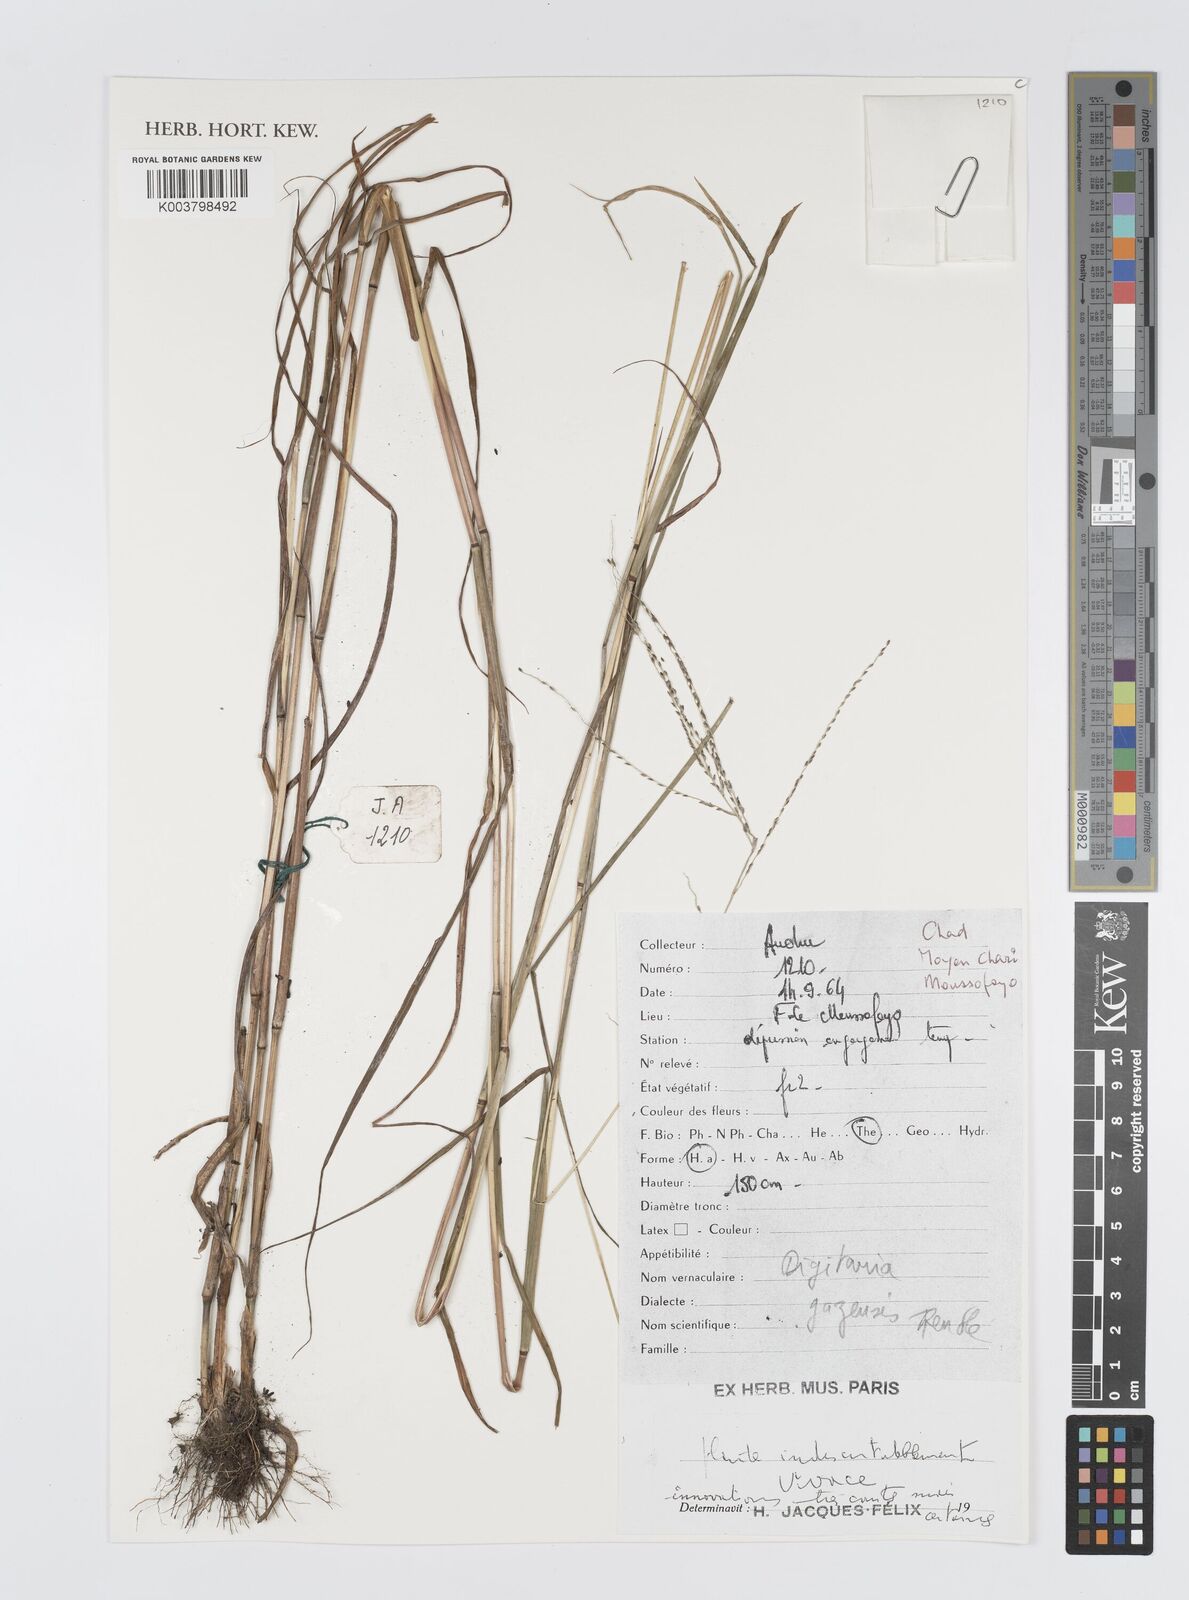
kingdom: Plantae
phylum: Tracheophyta
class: Liliopsida
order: Poales
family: Poaceae
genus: Digitaria
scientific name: Digitaria gazensis
